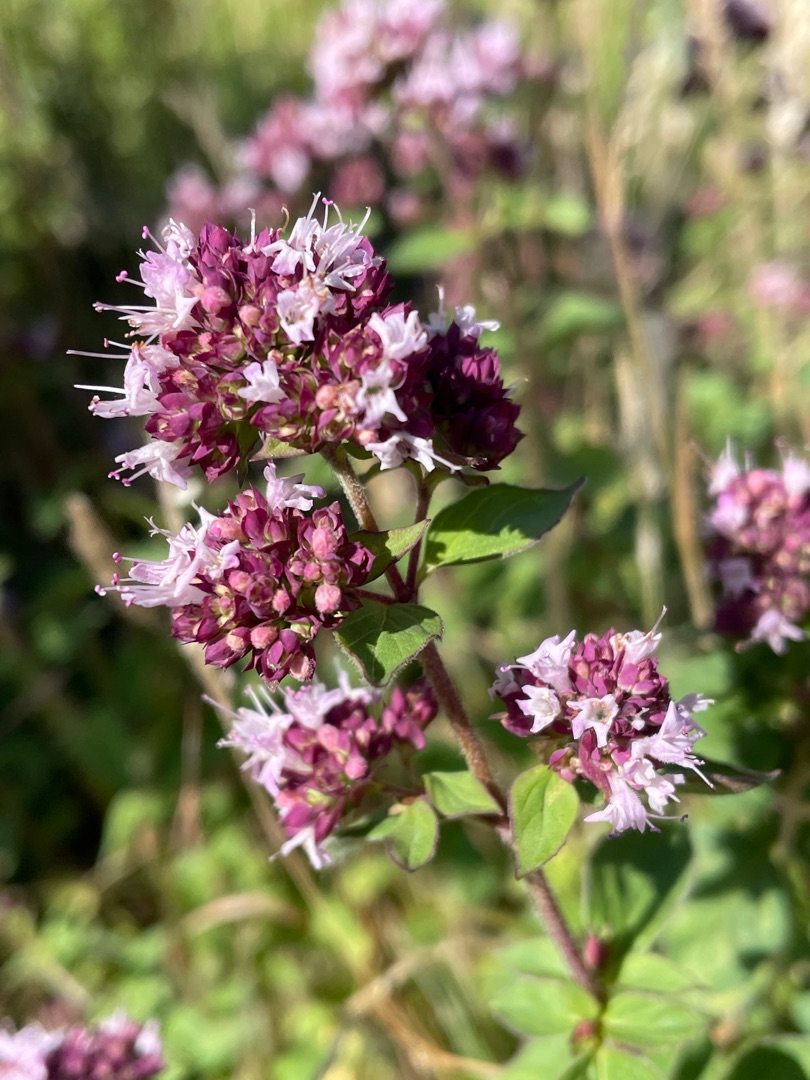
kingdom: Plantae
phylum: Tracheophyta
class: Magnoliopsida
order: Lamiales
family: Lamiaceae
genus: Origanum
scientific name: Origanum vulgare
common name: Merian
